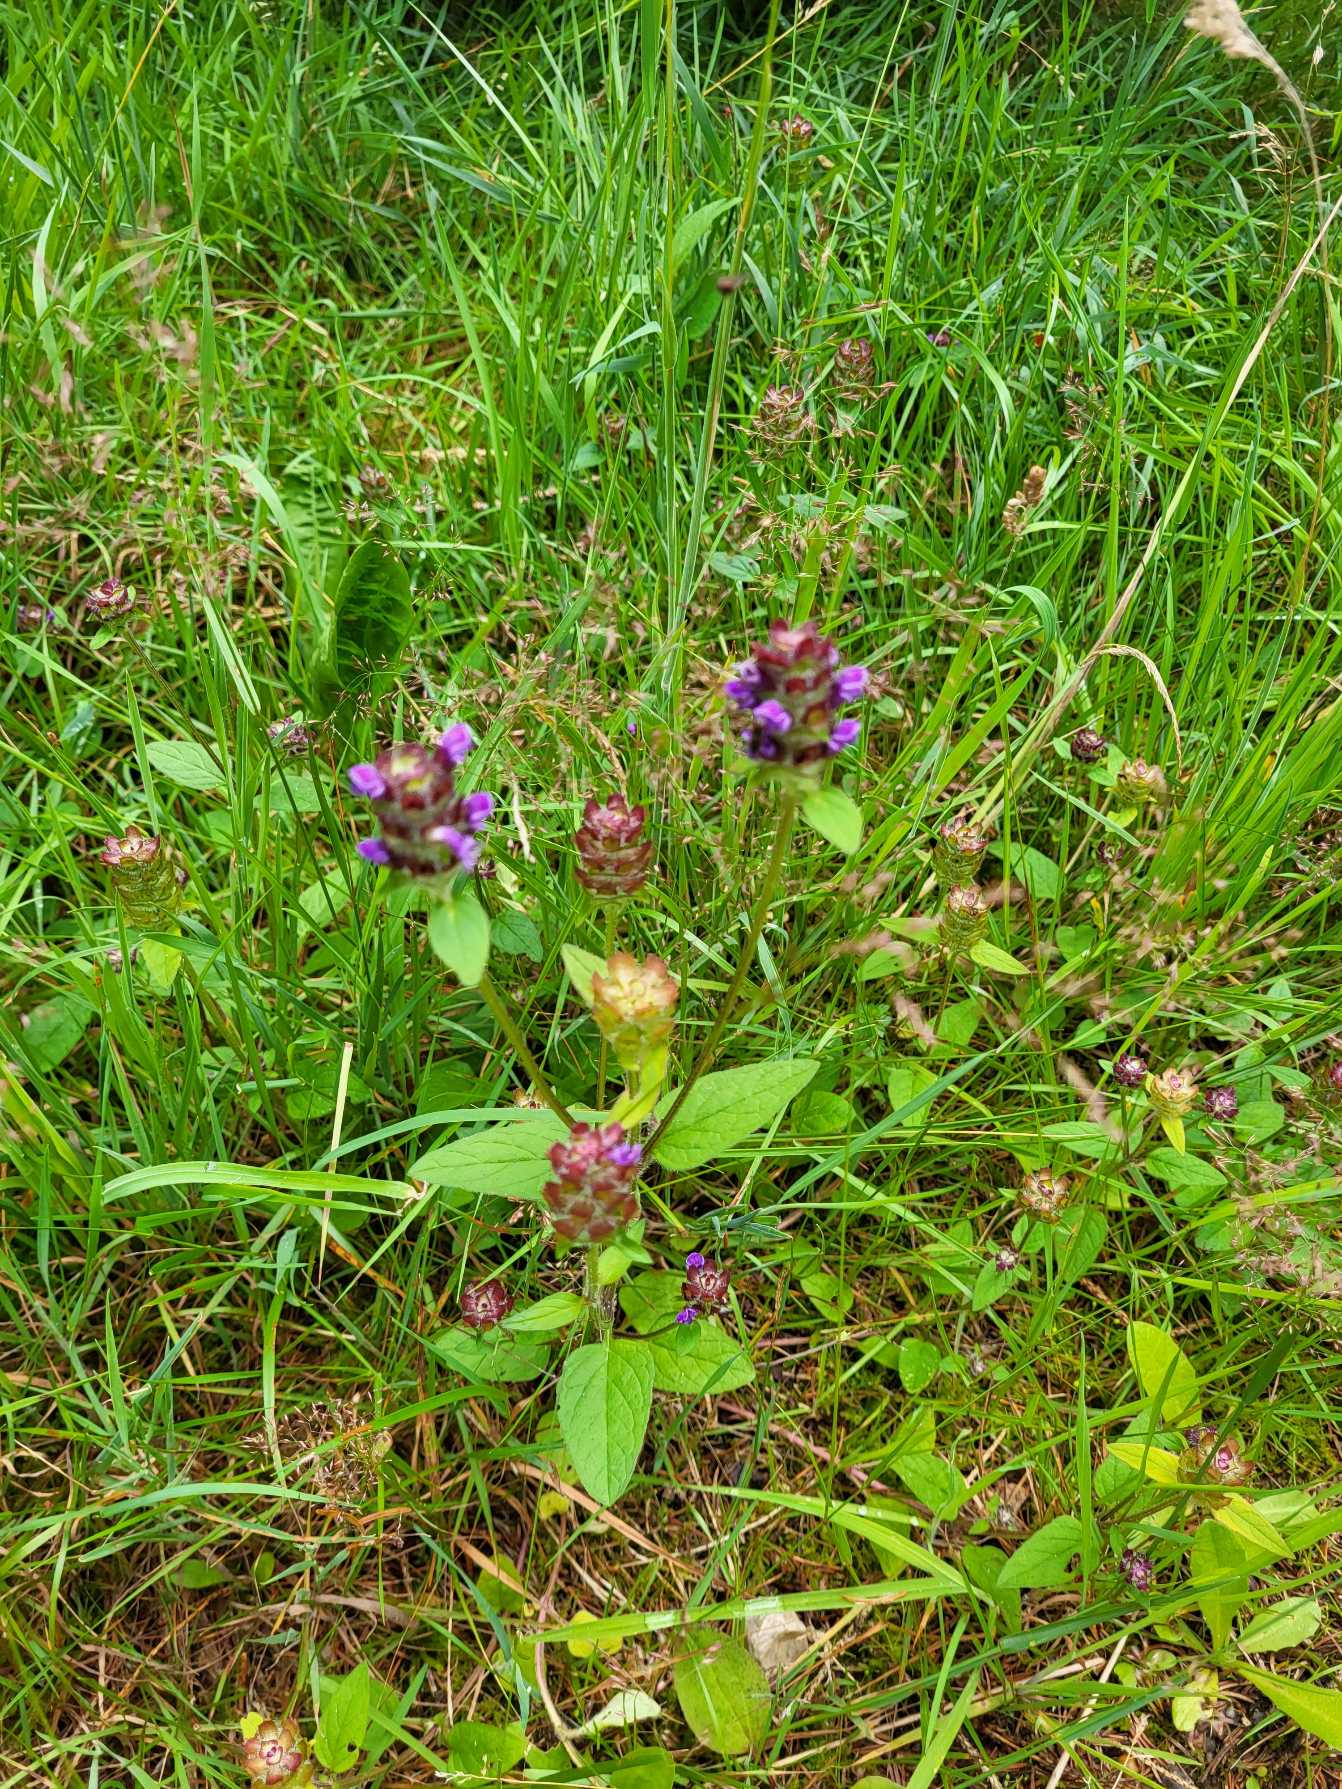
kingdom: Plantae
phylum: Tracheophyta
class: Magnoliopsida
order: Lamiales
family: Lamiaceae
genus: Prunella
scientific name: Prunella vulgaris
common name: Almindelig brunelle
